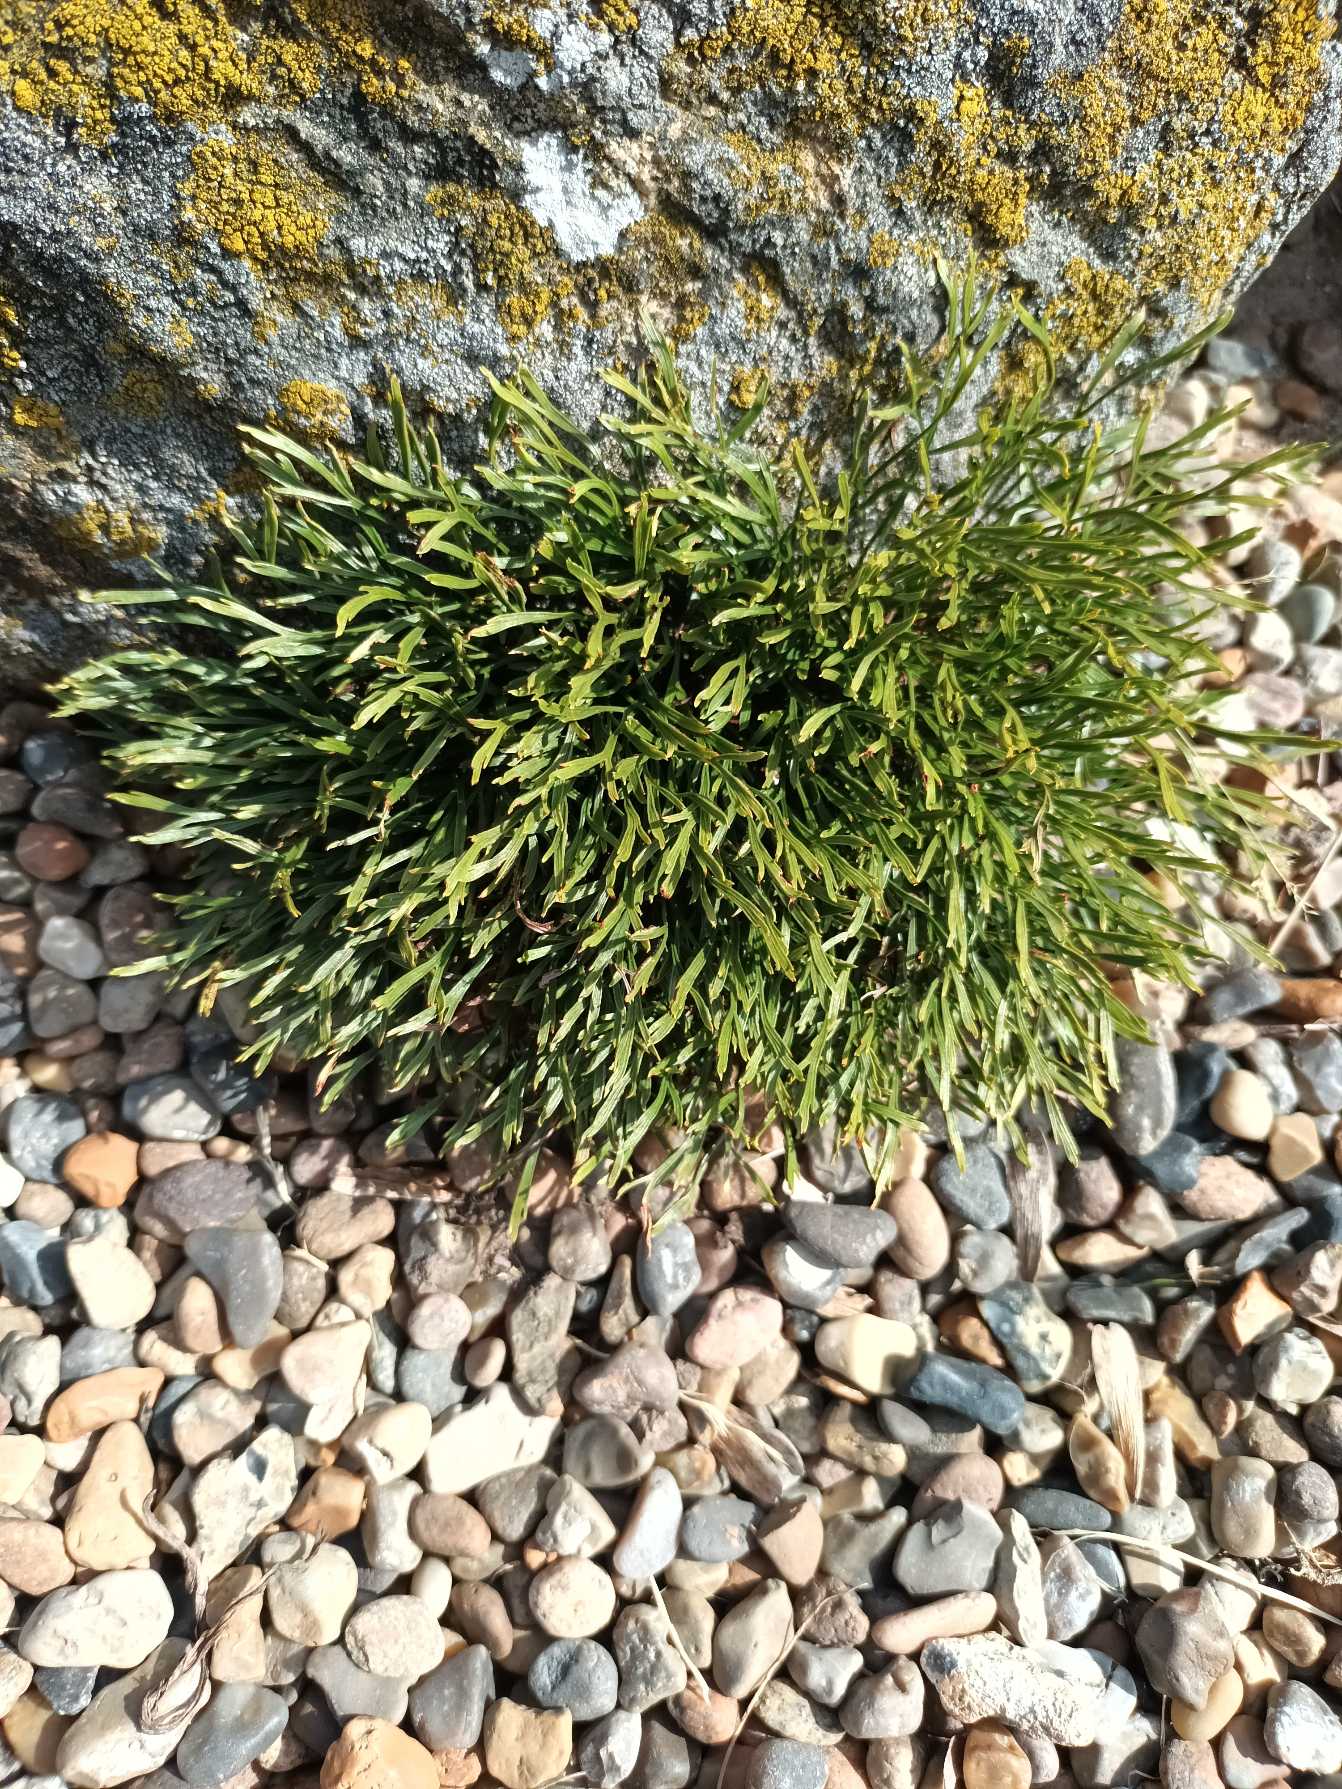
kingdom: Plantae
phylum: Tracheophyta
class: Polypodiopsida
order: Polypodiales
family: Aspleniaceae
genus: Asplenium
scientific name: Asplenium septentrionale
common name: Nordisk radeløv
